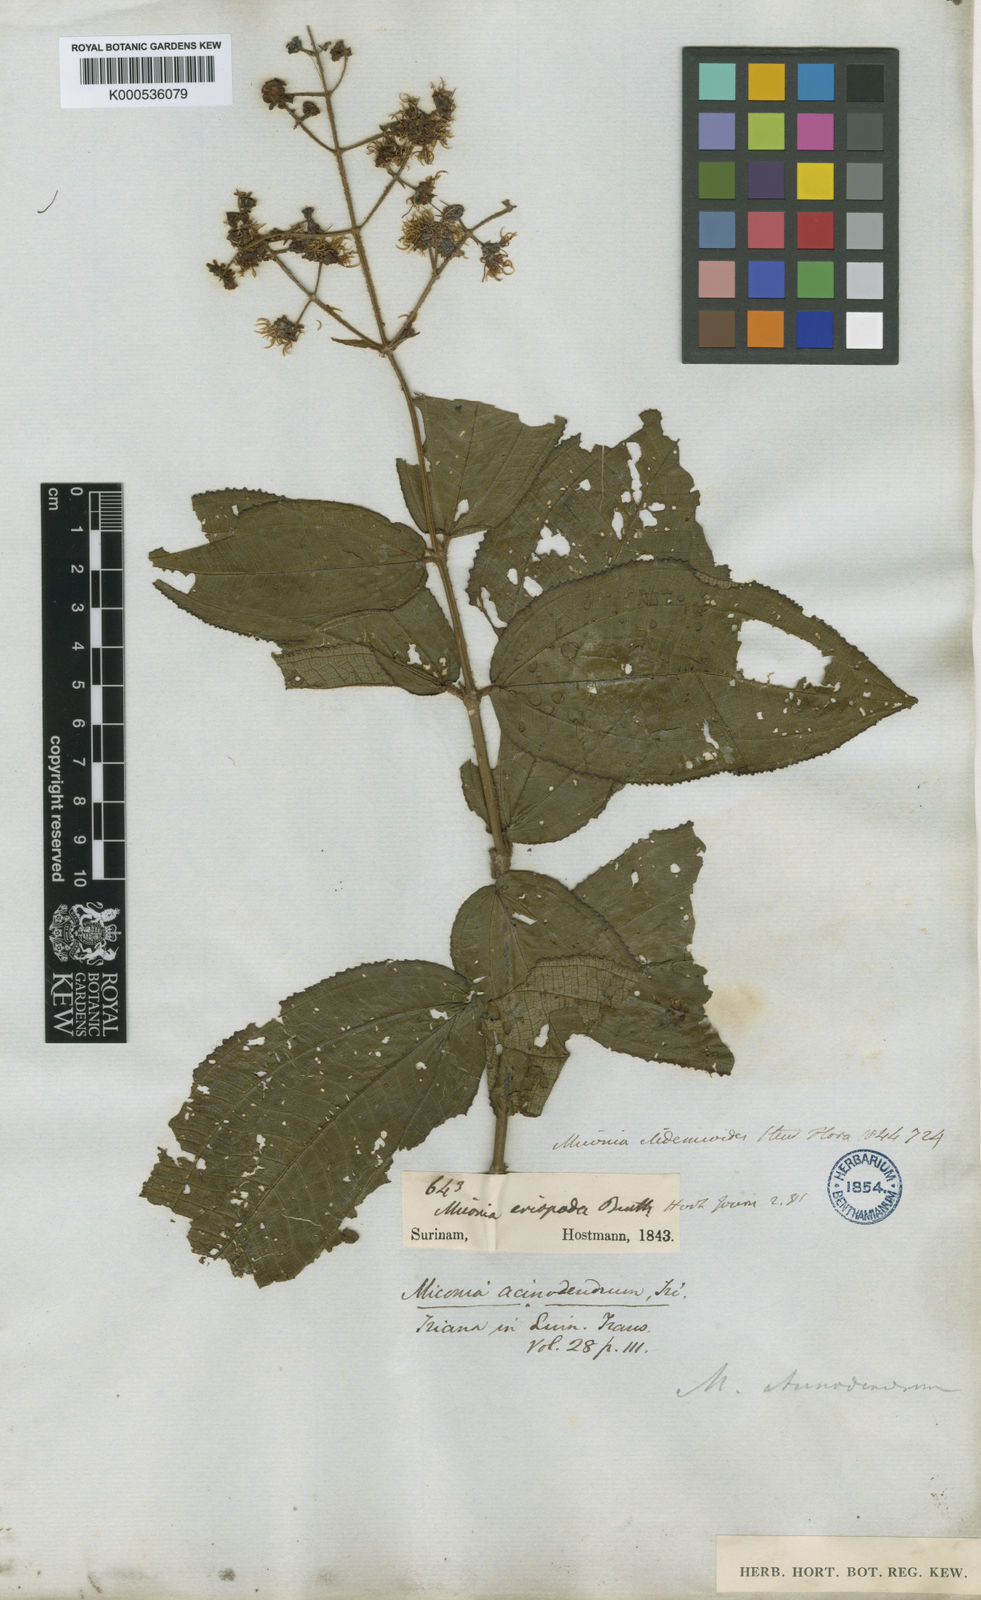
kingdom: Plantae
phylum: Tracheophyta
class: Magnoliopsida
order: Myrtales
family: Melastomataceae
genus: Miconia
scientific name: Miconia
